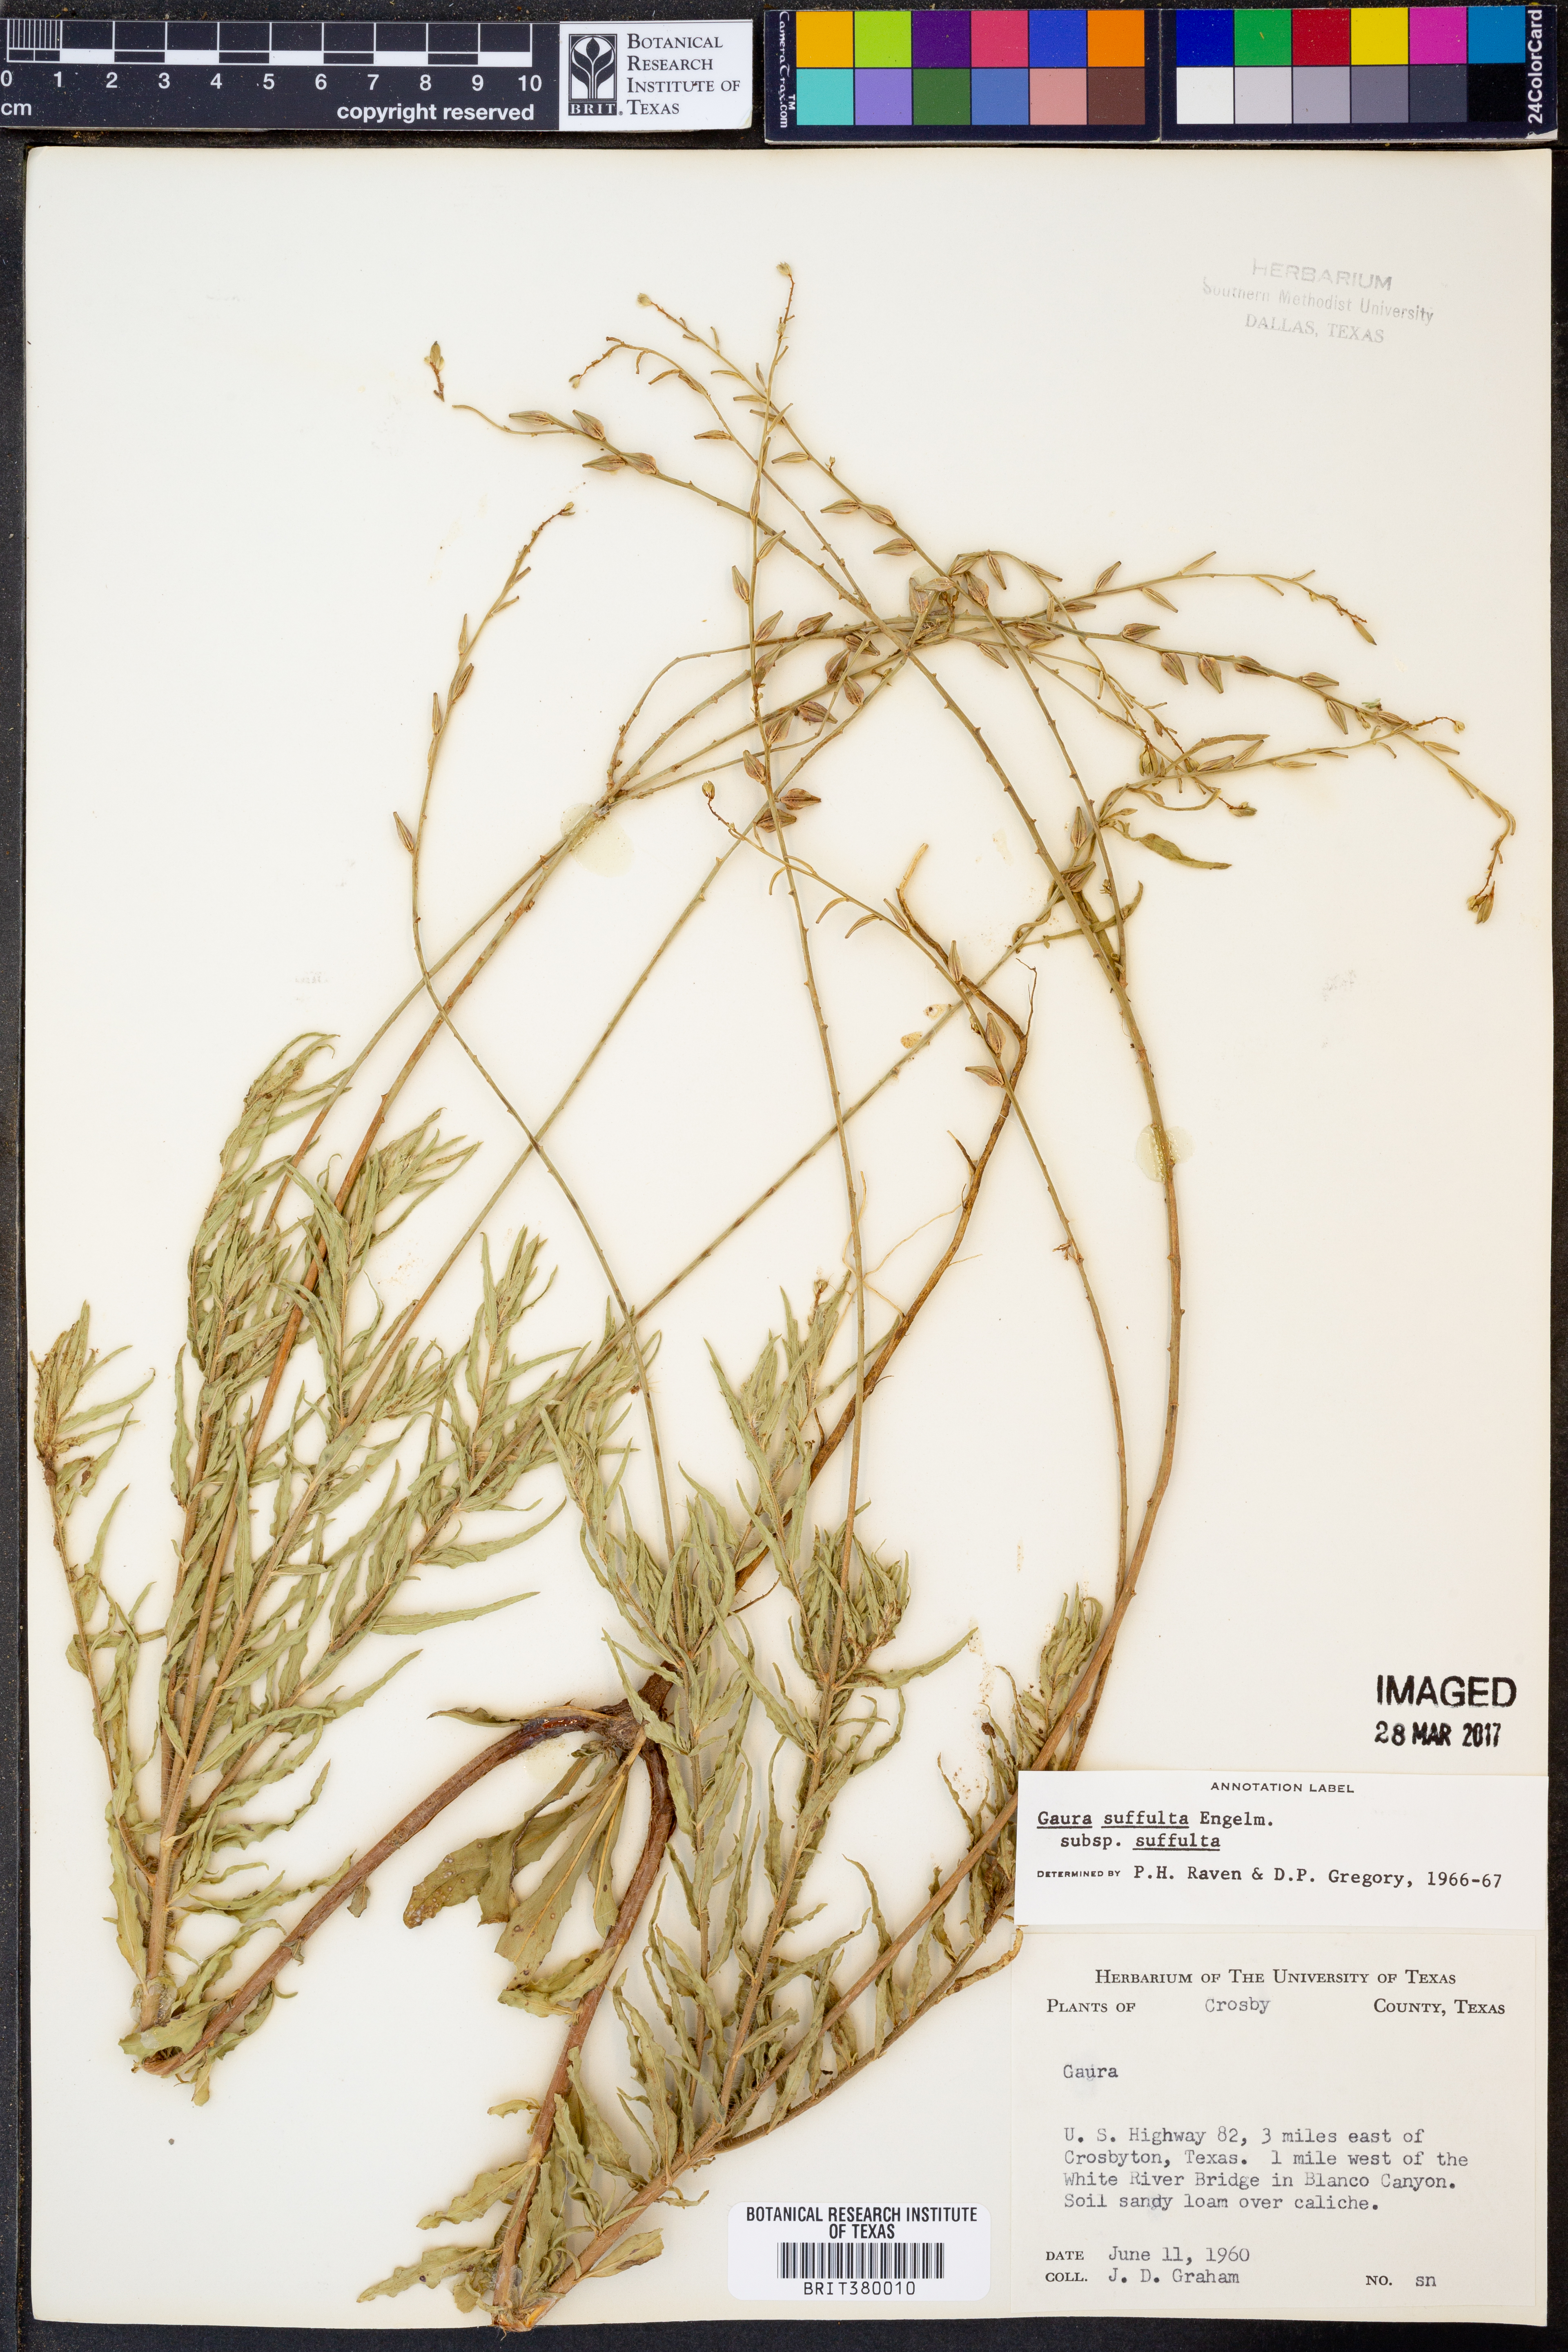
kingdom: Plantae
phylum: Tracheophyta
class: Magnoliopsida
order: Myrtales
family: Onagraceae
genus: Oenothera
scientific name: Oenothera suffulta
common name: Kisses
